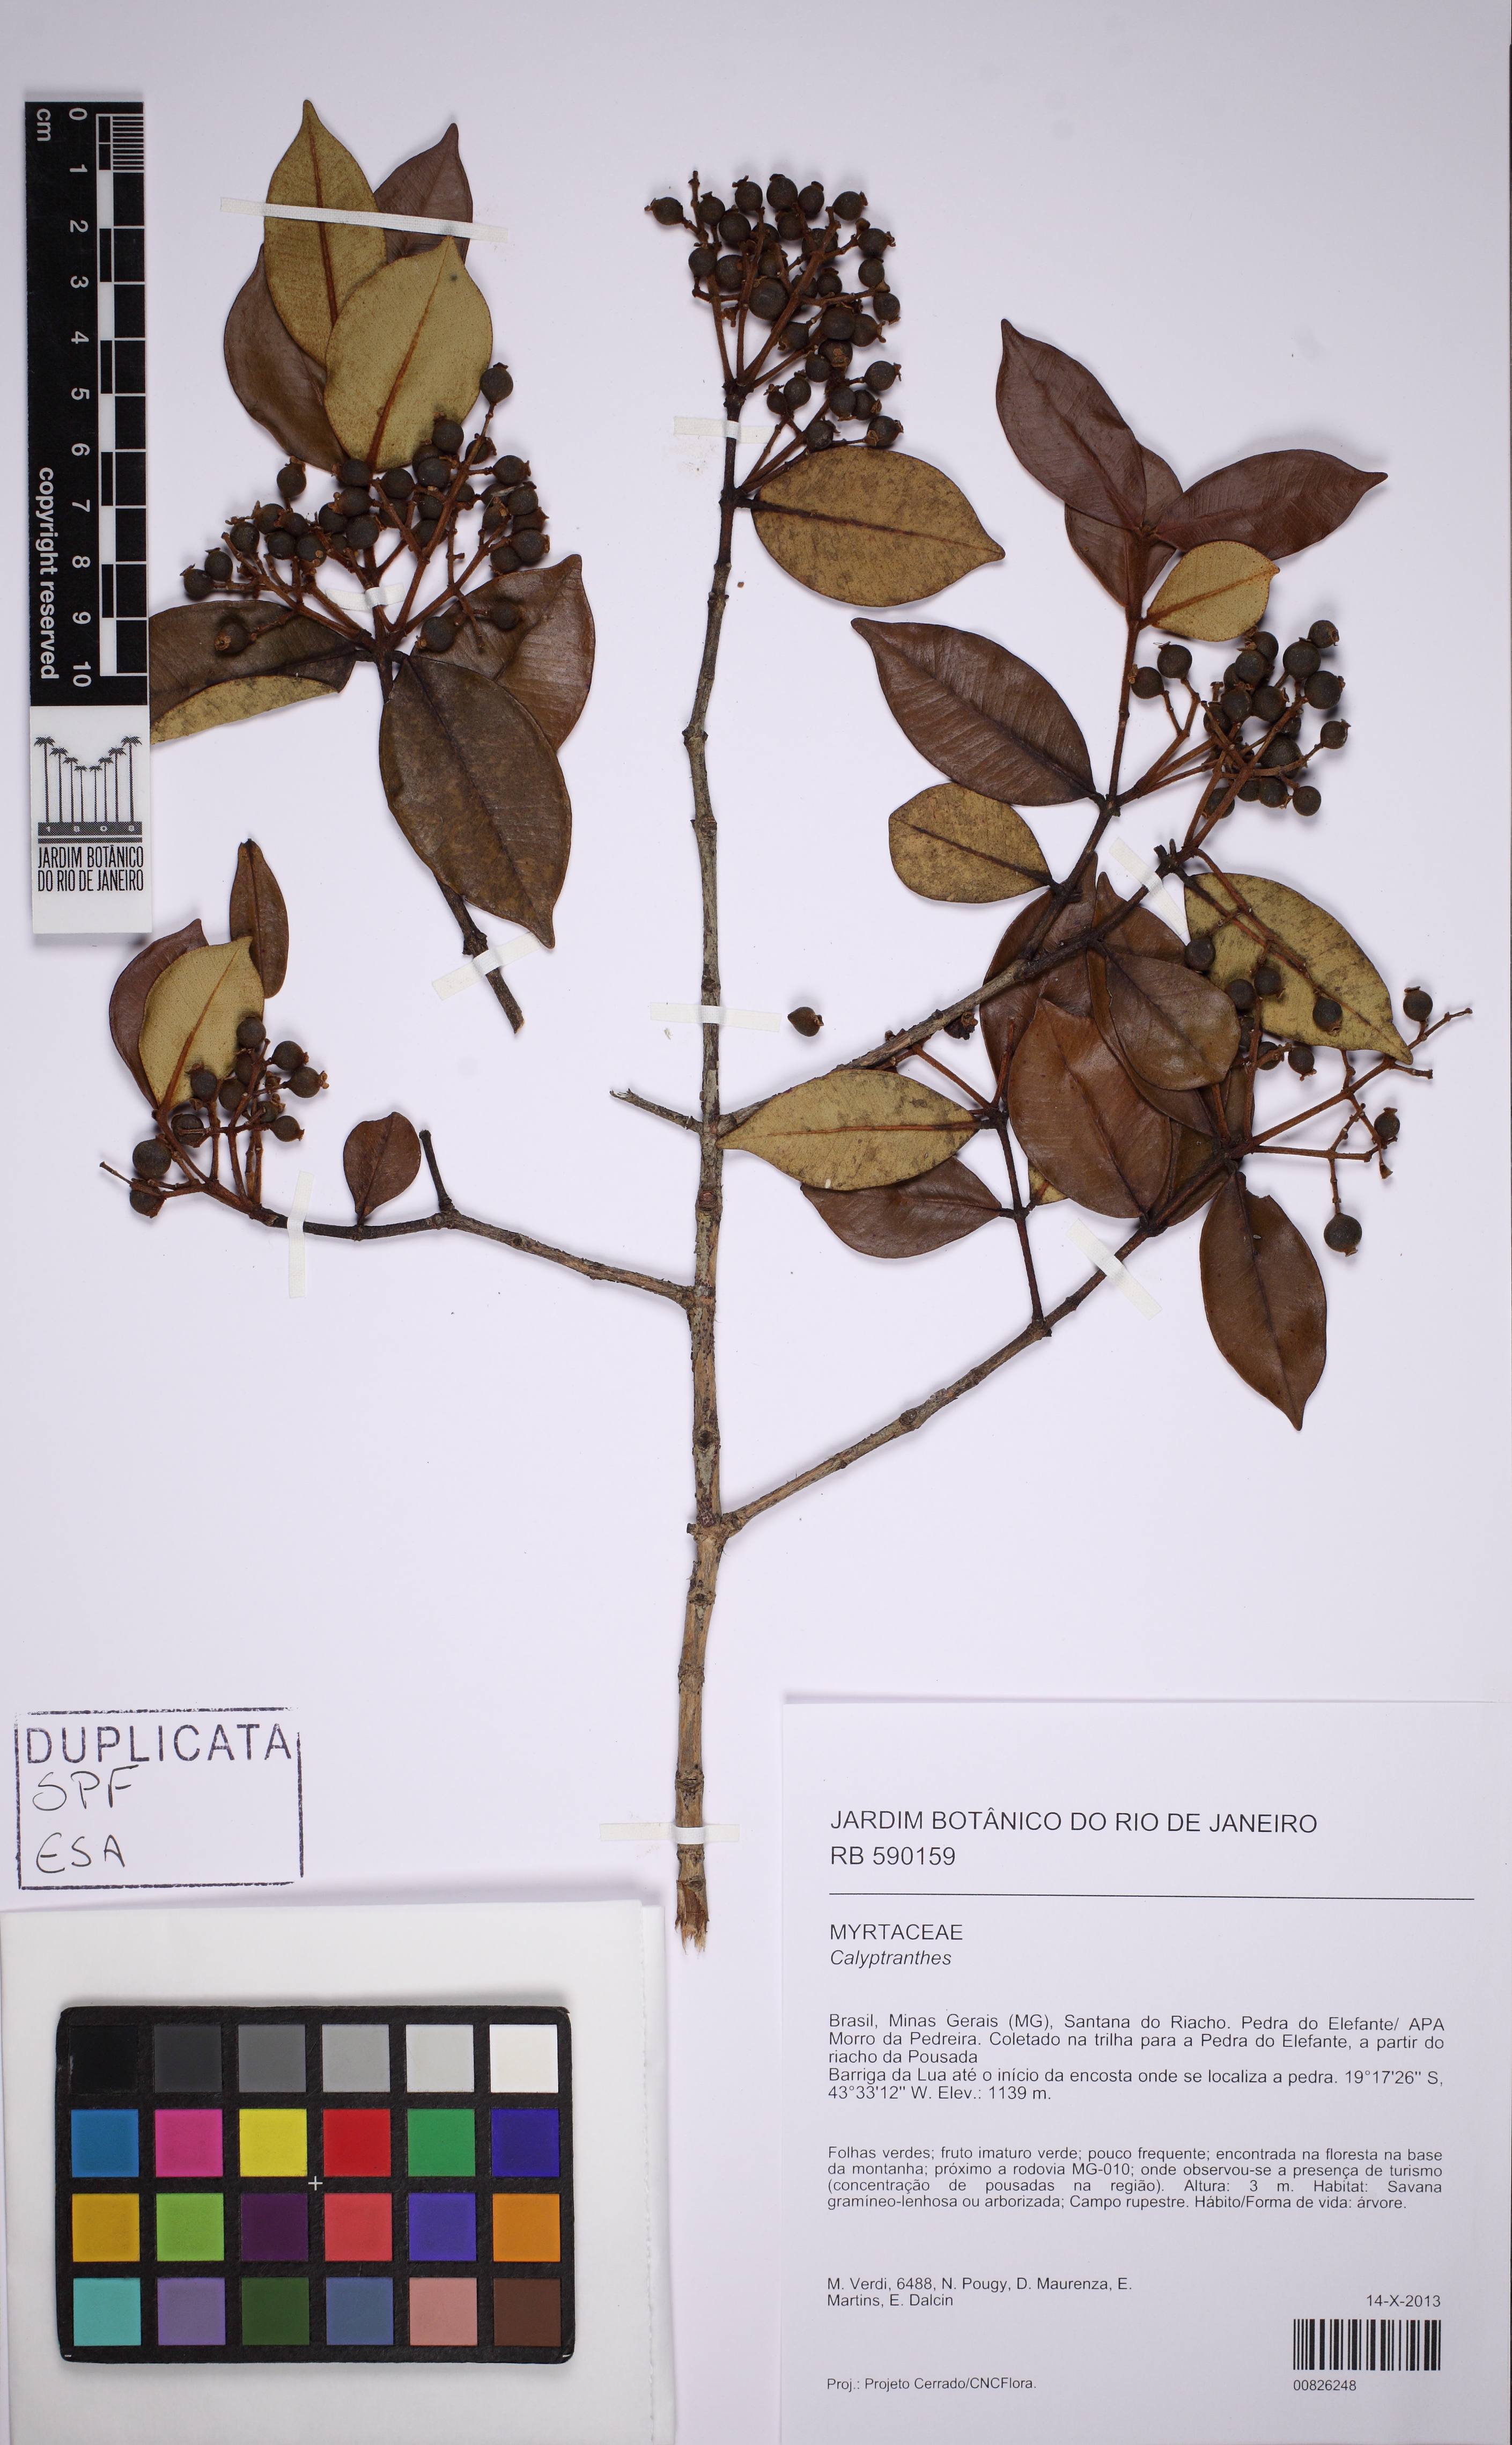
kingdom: Plantae
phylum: Tracheophyta
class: Magnoliopsida
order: Myrtales
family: Myrtaceae
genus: Marlierea
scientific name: Marlierea clausseniana
